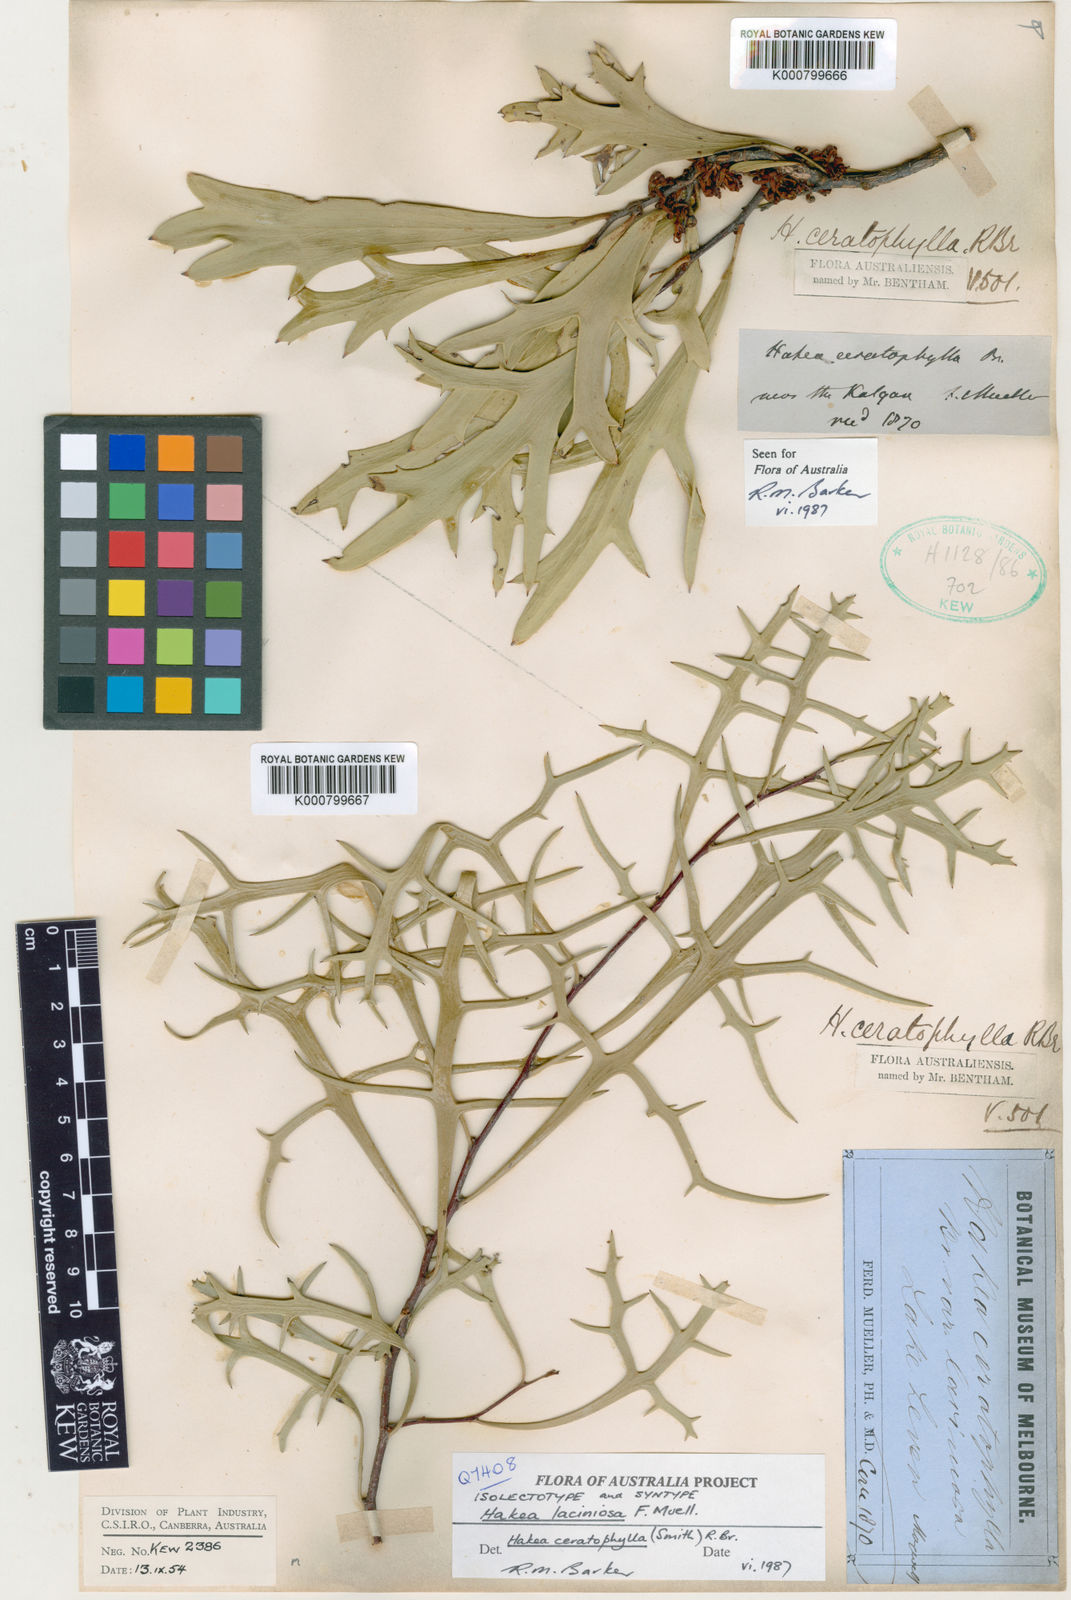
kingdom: Plantae
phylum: Tracheophyta
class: Magnoliopsida
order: Proteales
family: Proteaceae
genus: Hakea
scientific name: Hakea ceratophylla
